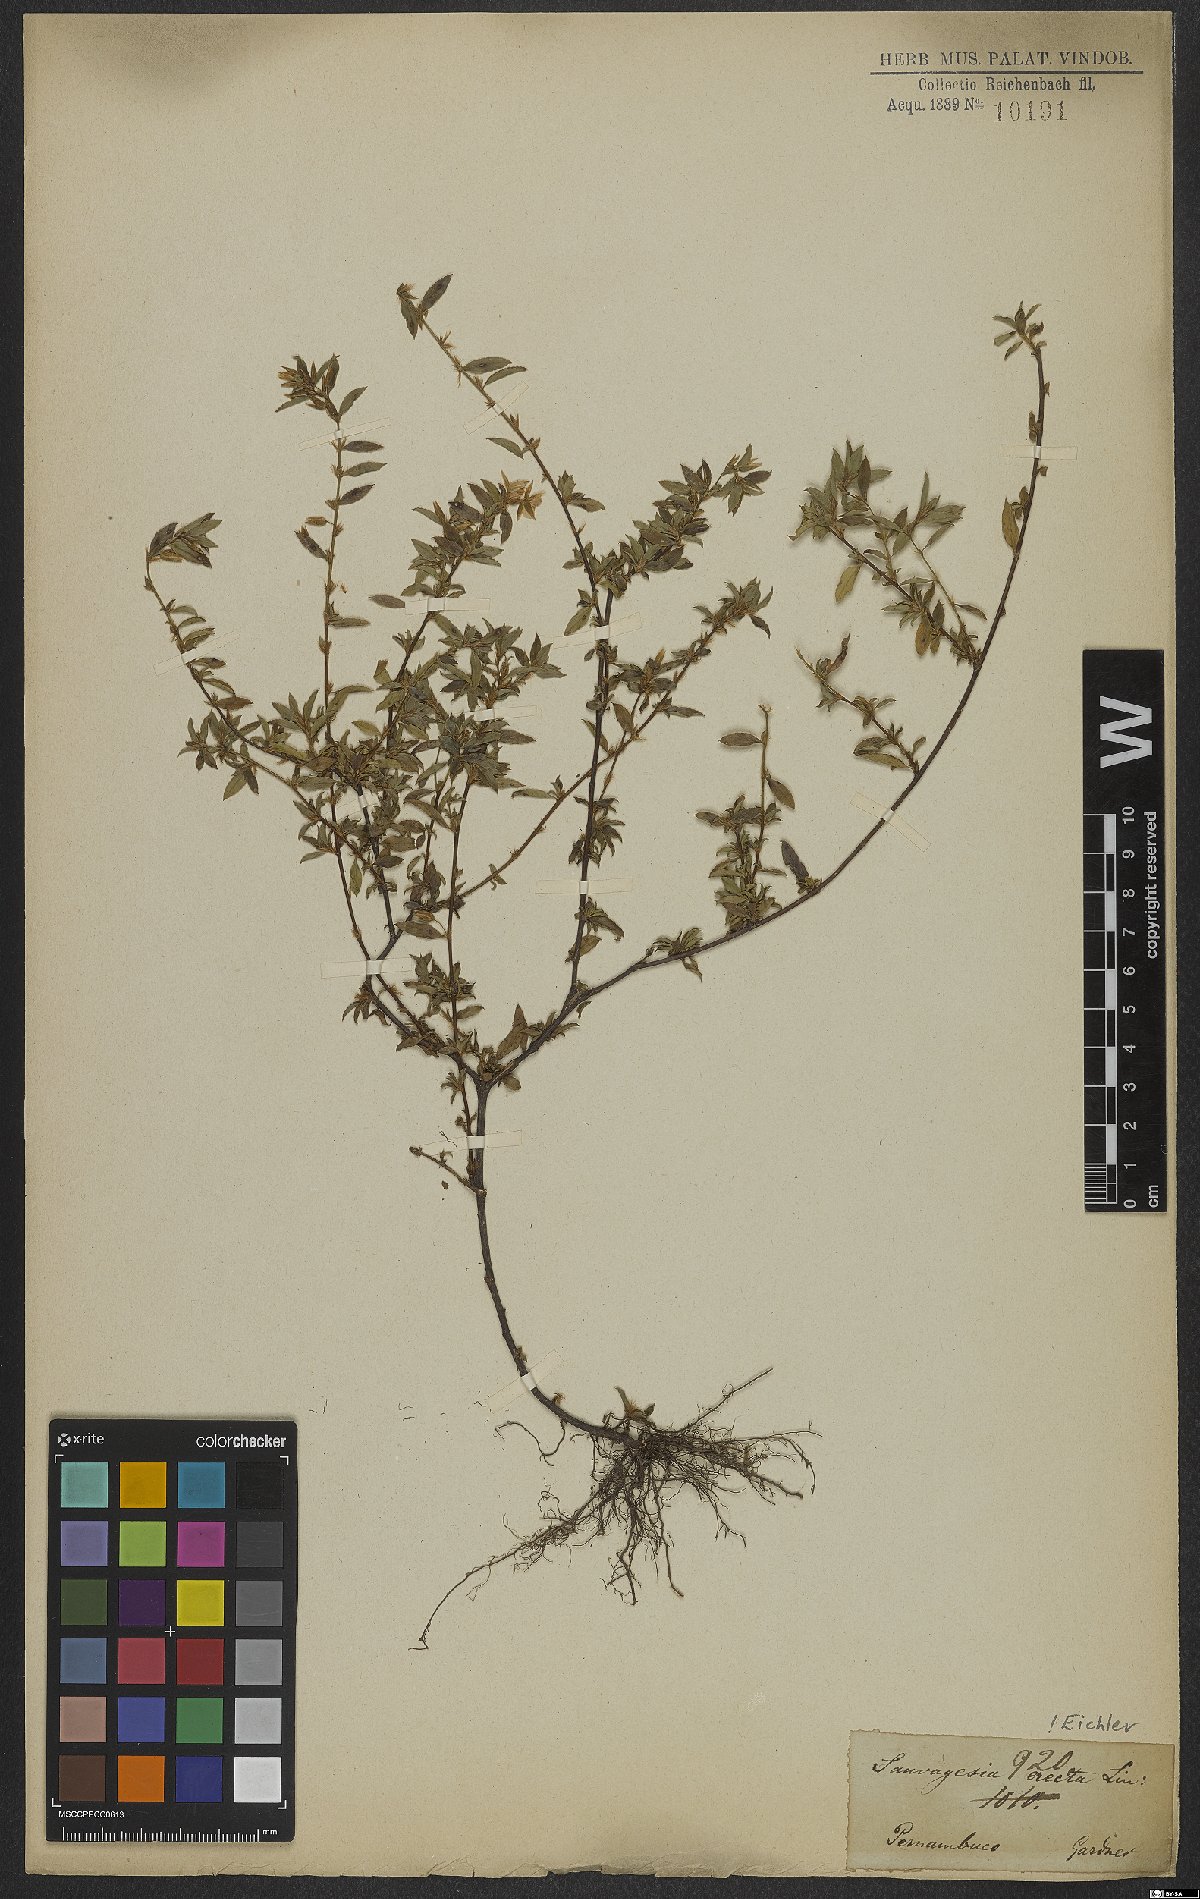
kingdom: Plantae
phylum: Tracheophyta
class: Magnoliopsida
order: Malpighiales
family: Ochnaceae
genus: Sauvagesia
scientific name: Sauvagesia erecta
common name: Creole tea
